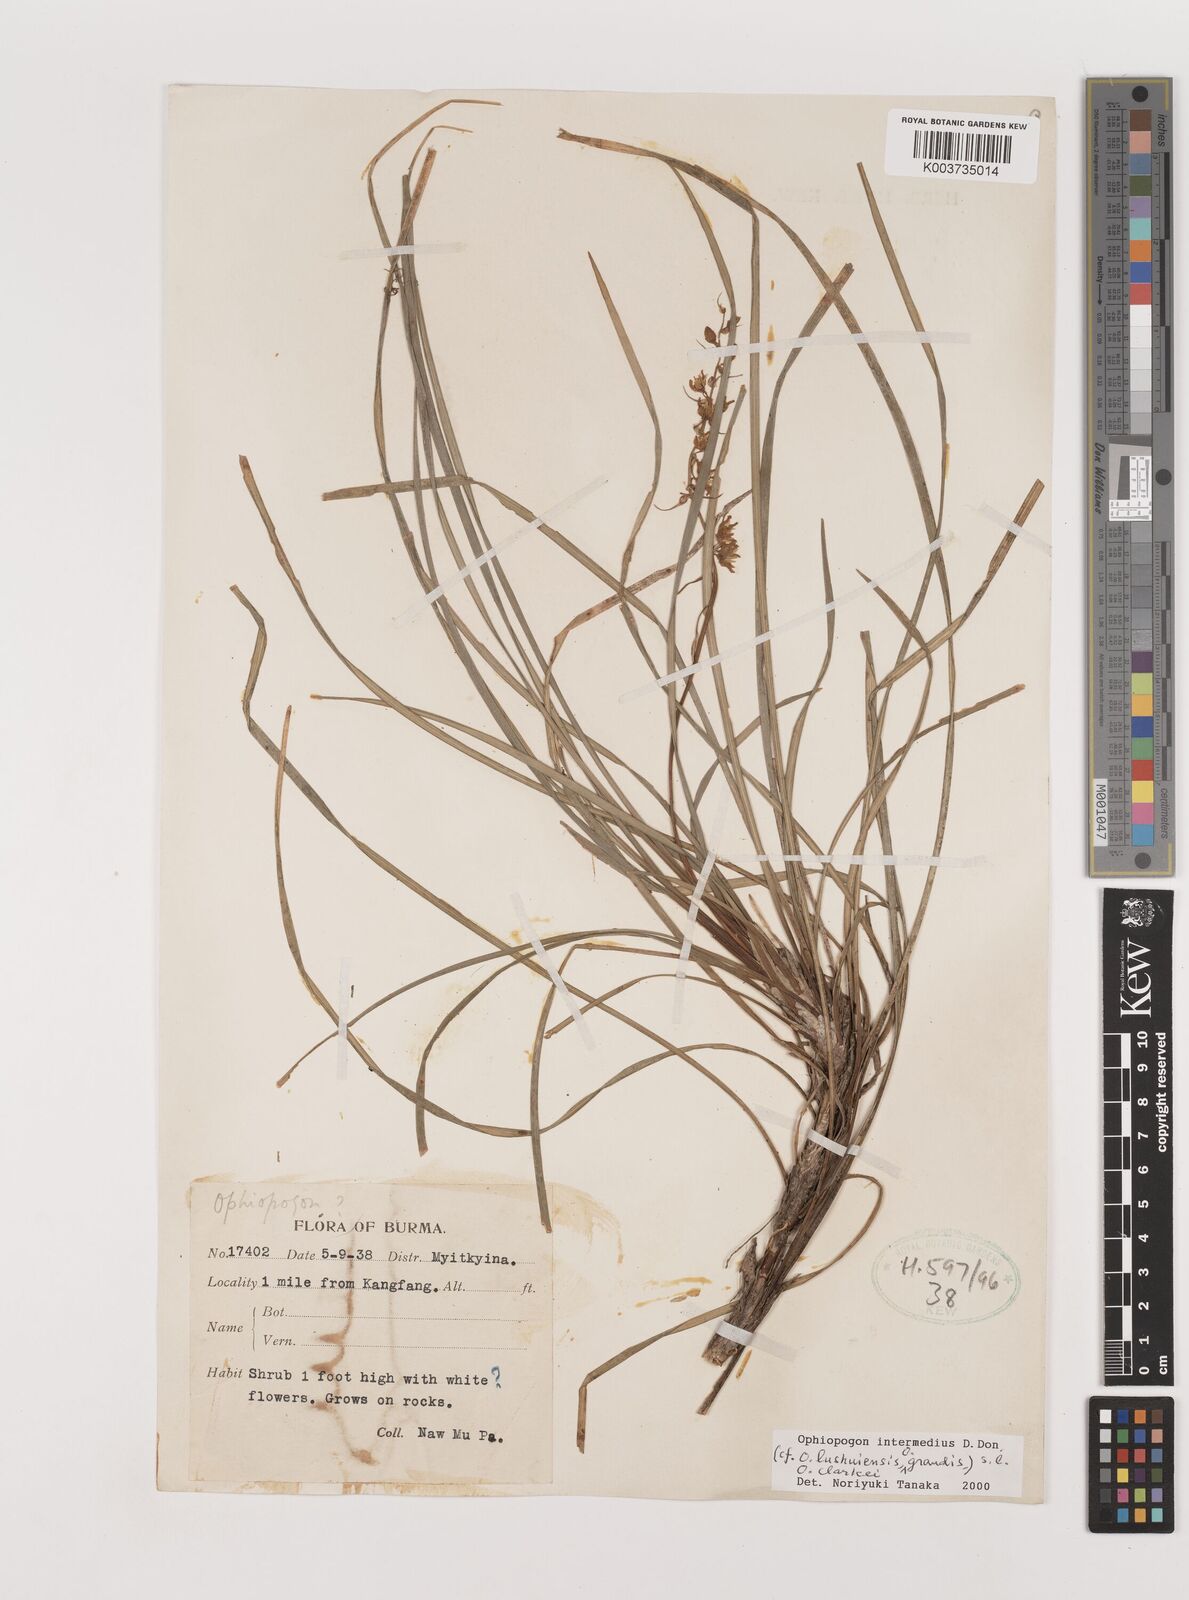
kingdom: Plantae
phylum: Tracheophyta
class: Liliopsida
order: Asparagales
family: Asparagaceae
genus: Ophiopogon
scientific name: Ophiopogon intermedius
